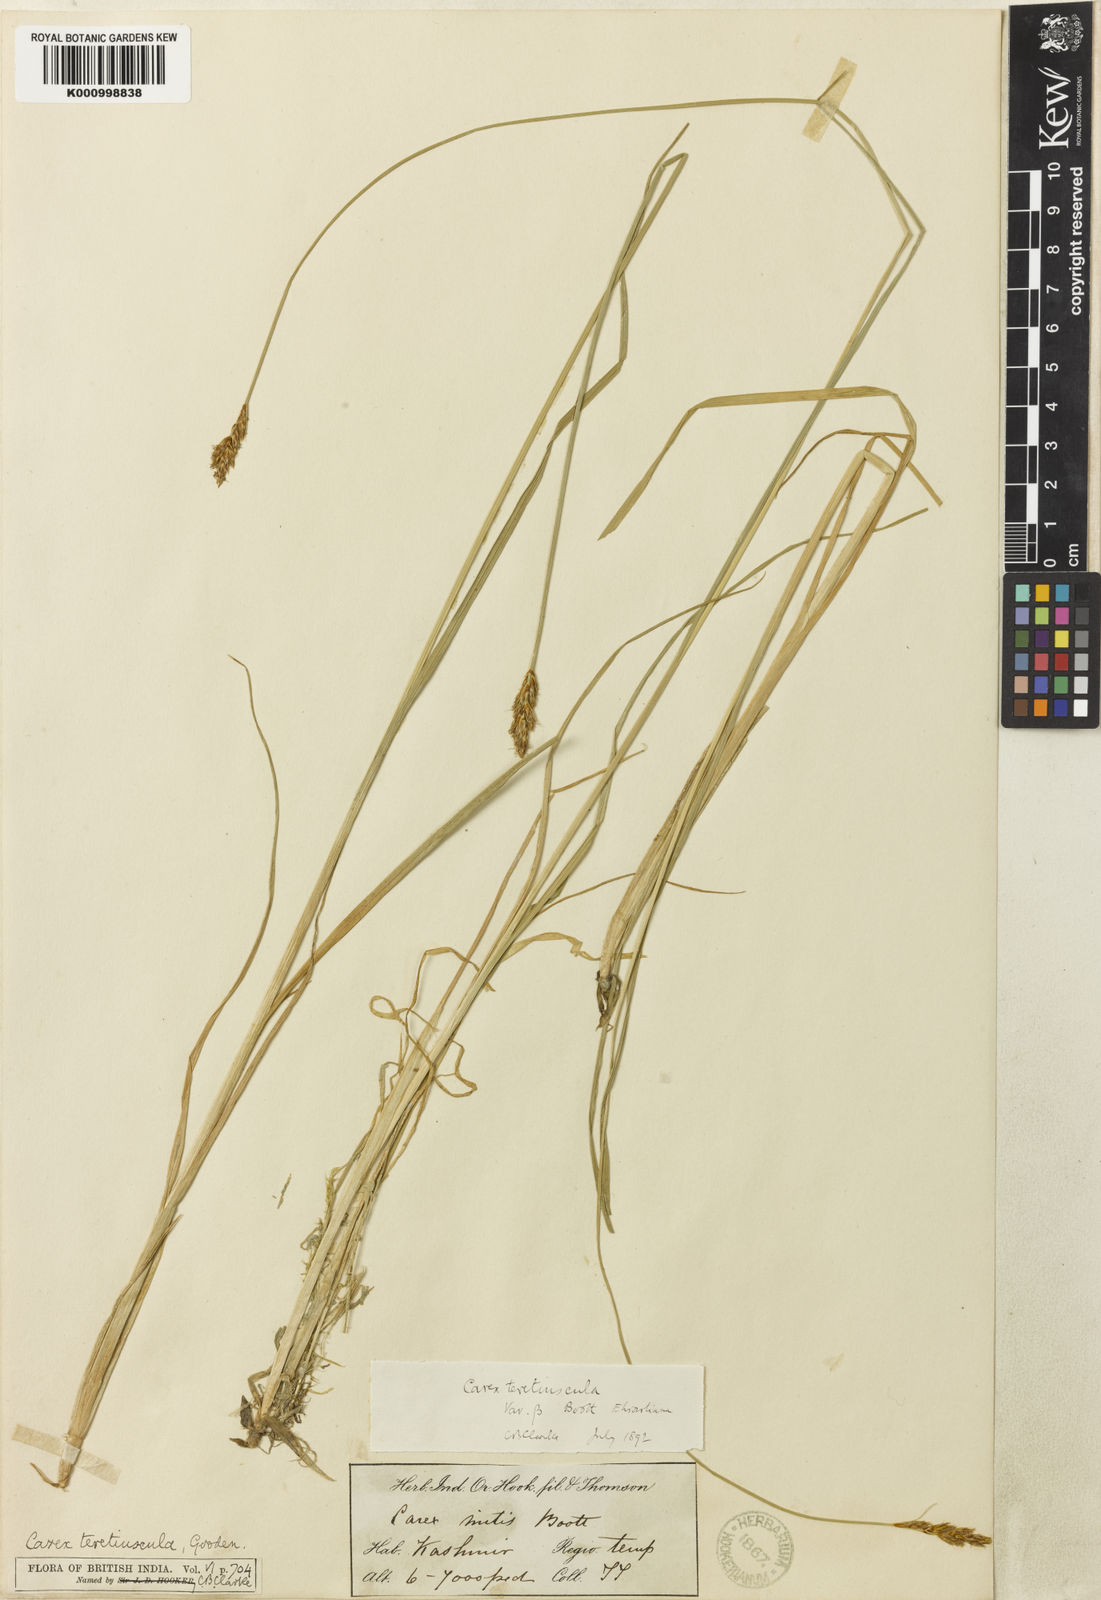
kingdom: Plantae
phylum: Tracheophyta
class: Liliopsida
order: Poales
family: Cyperaceae
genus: Carex
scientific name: Carex diandra
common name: Lesser tussock-sedge
